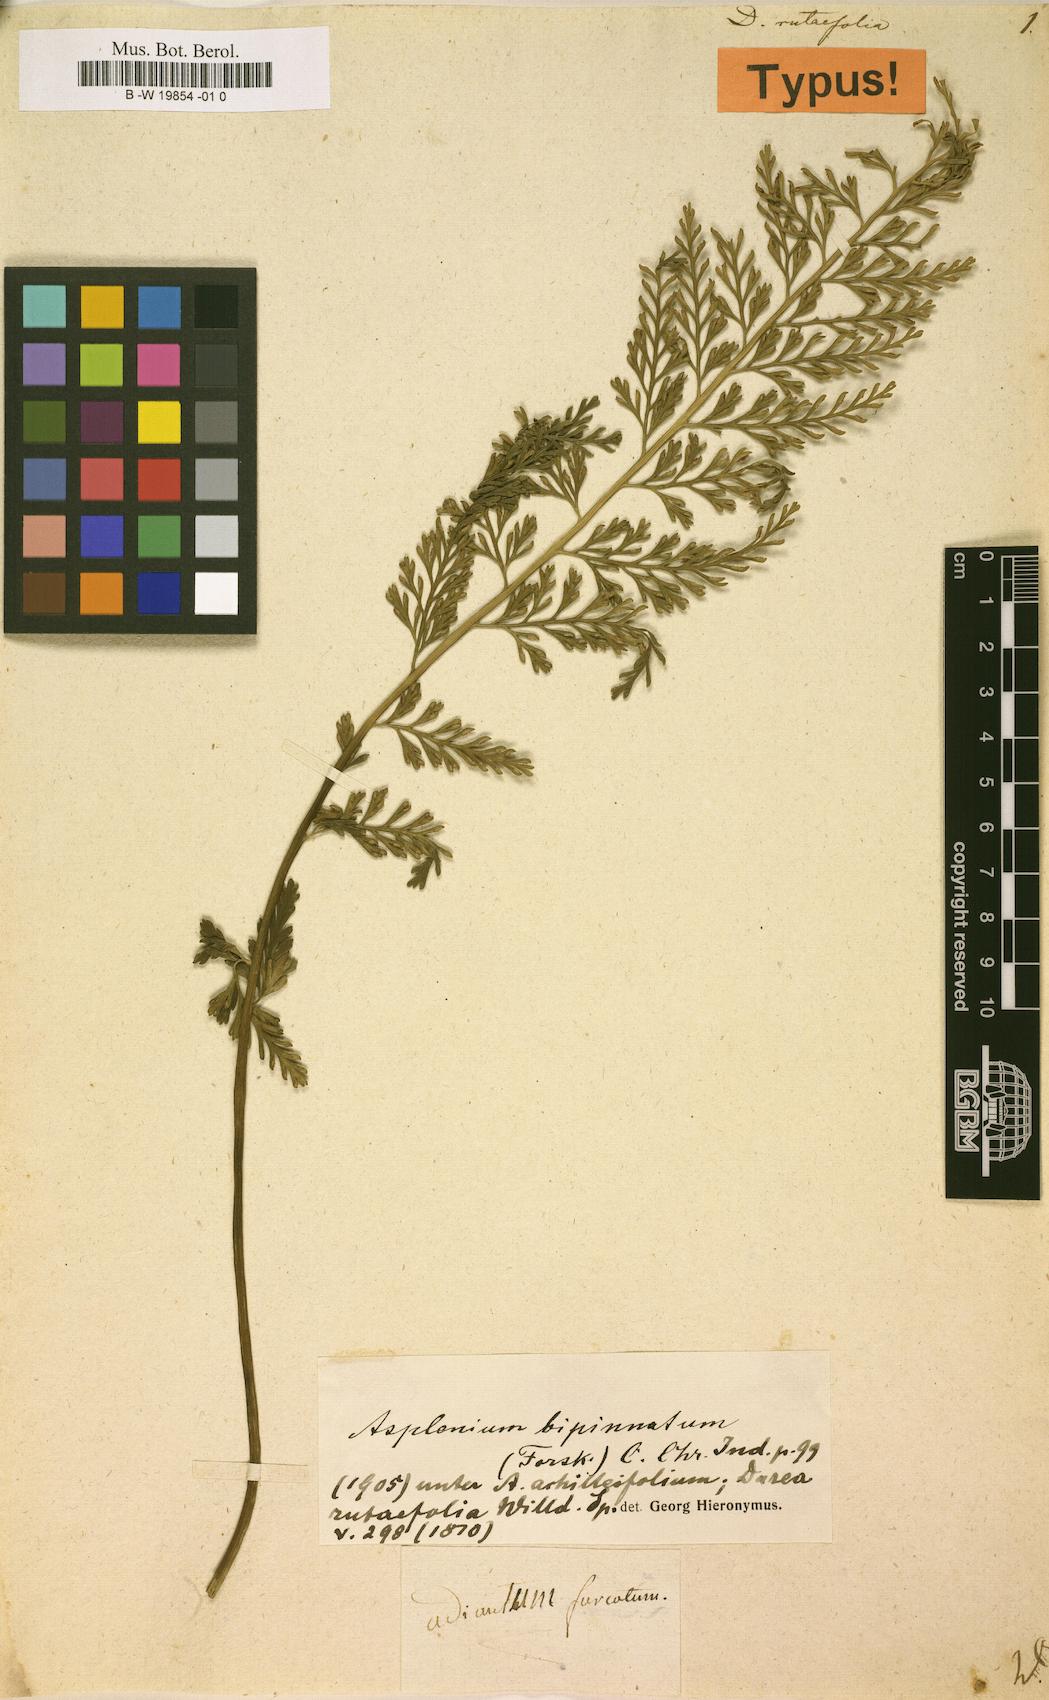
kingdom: Plantae
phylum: Tracheophyta
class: Polypodiopsida
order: Polypodiales
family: Aspleniaceae
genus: Asplenium
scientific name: Asplenium rutifolium
